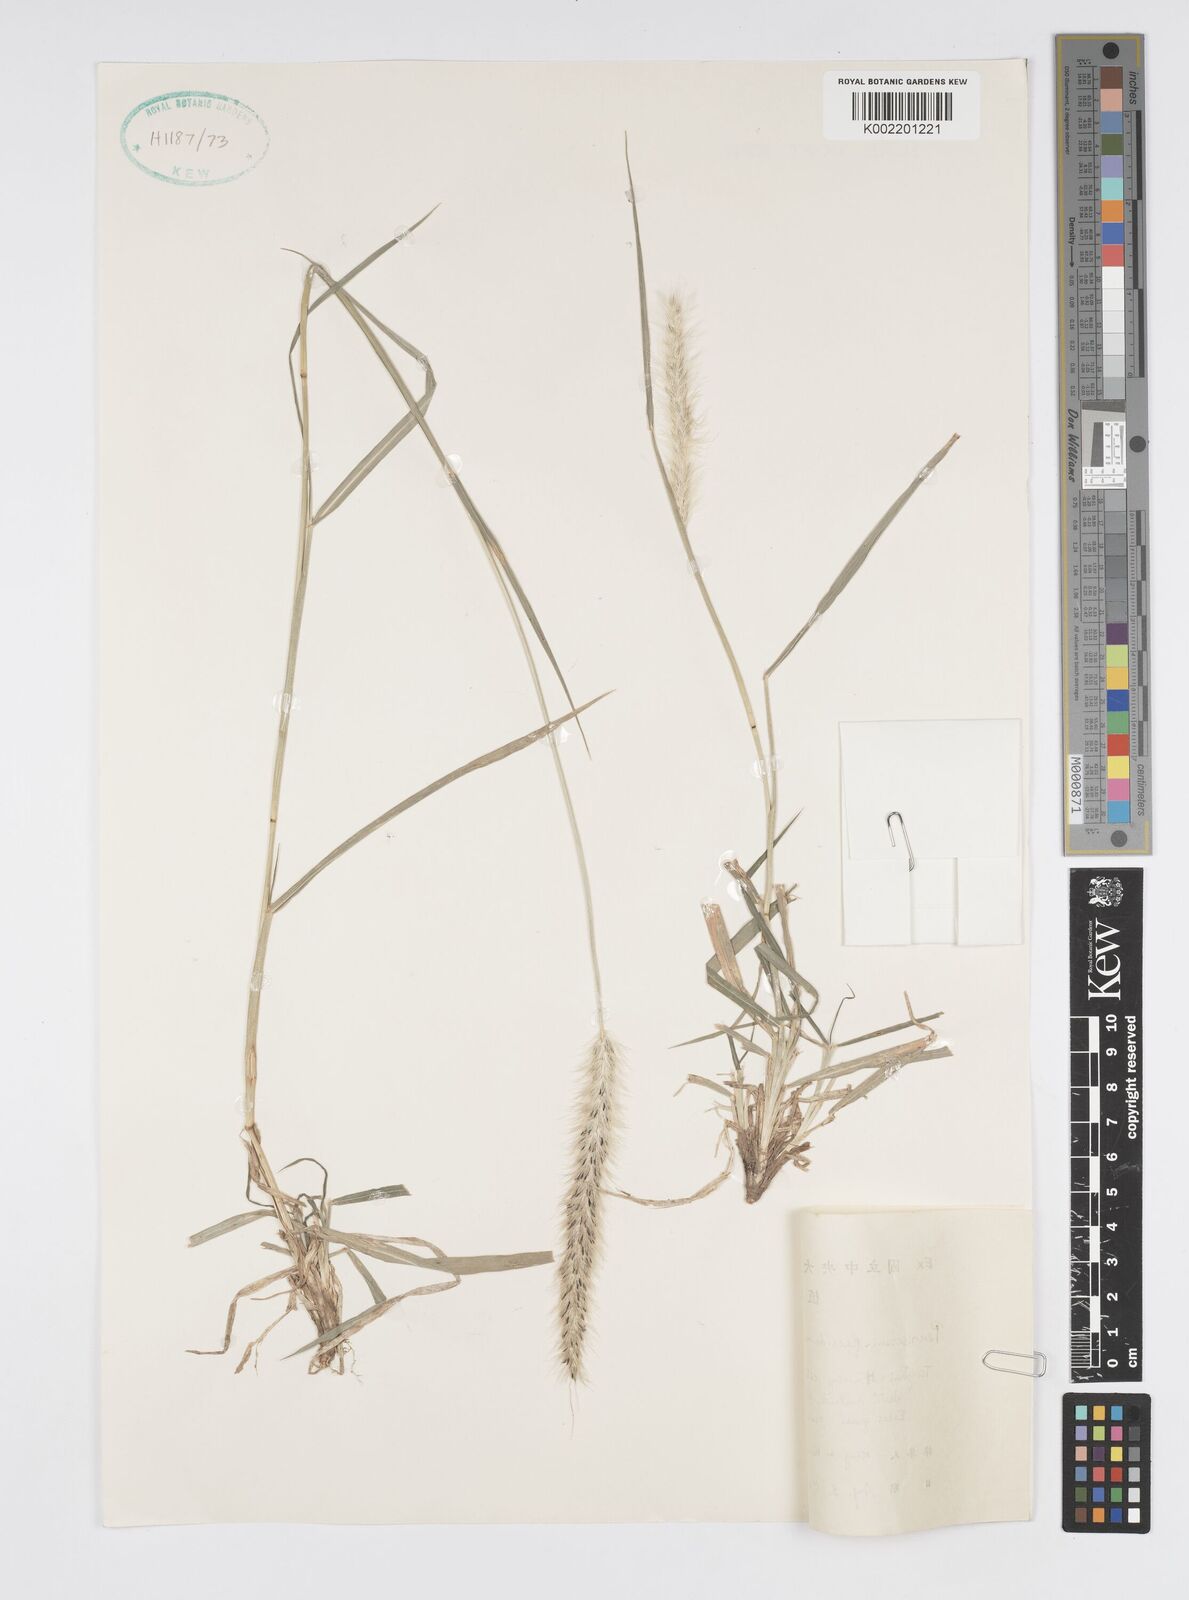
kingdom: Plantae
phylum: Tracheophyta
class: Liliopsida
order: Poales
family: Poaceae
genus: Cenchrus
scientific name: Cenchrus flaccidus
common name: Flaccid grass
